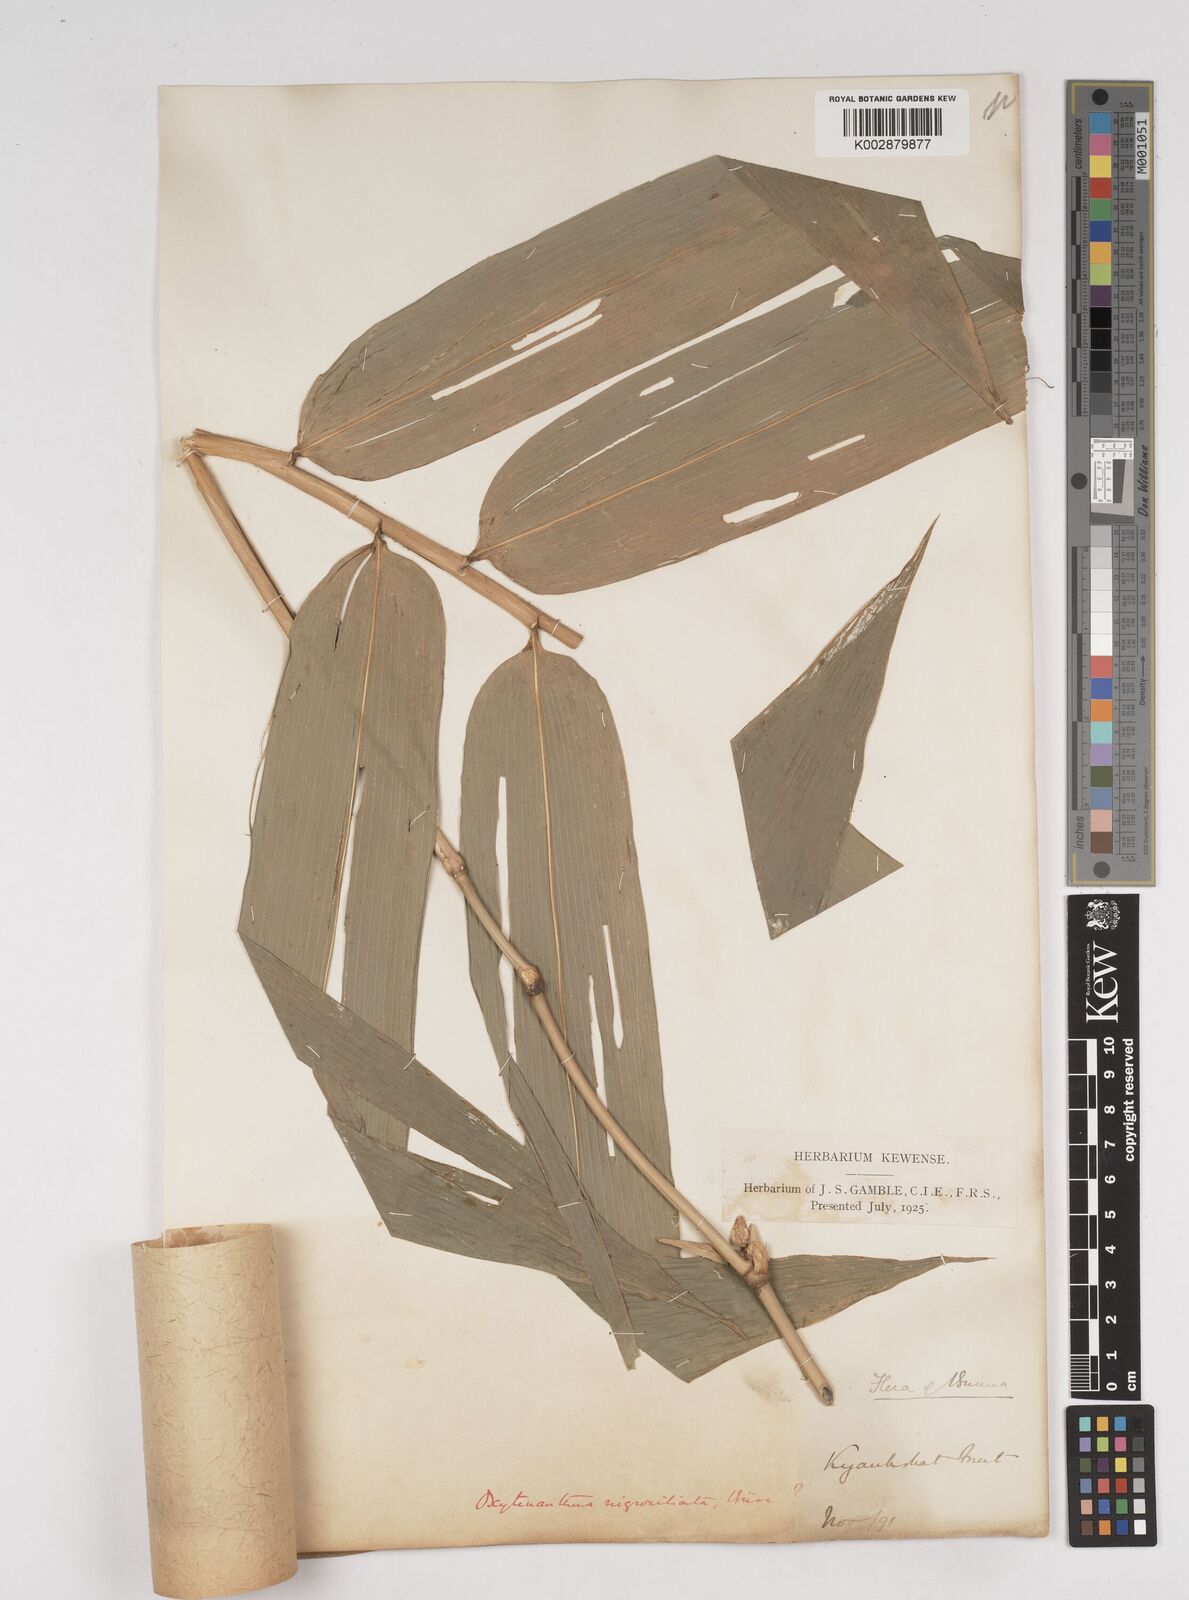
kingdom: Plantae
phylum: Tracheophyta
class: Liliopsida
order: Poales
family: Poaceae
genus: Gigantochloa
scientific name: Gigantochloa
